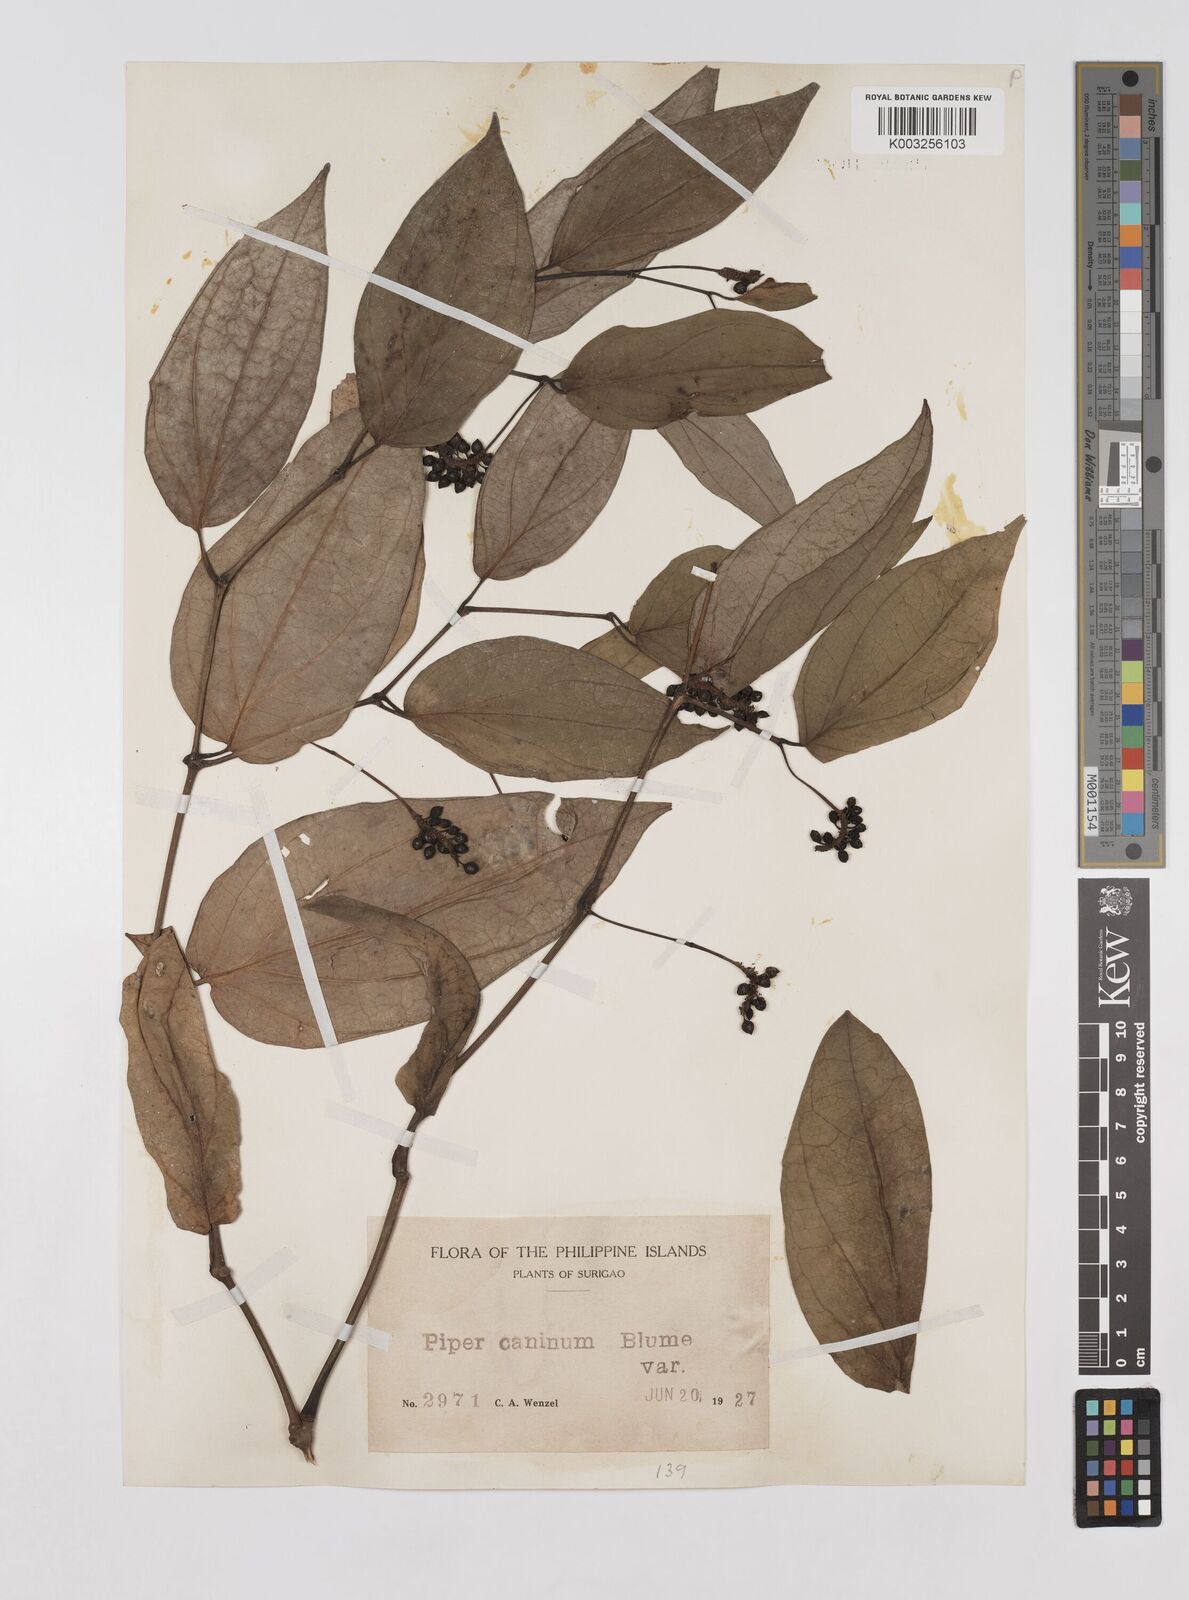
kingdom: Plantae
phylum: Tracheophyta
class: Magnoliopsida
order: Piperales
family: Piperaceae
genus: Piper
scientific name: Piper lanatum
